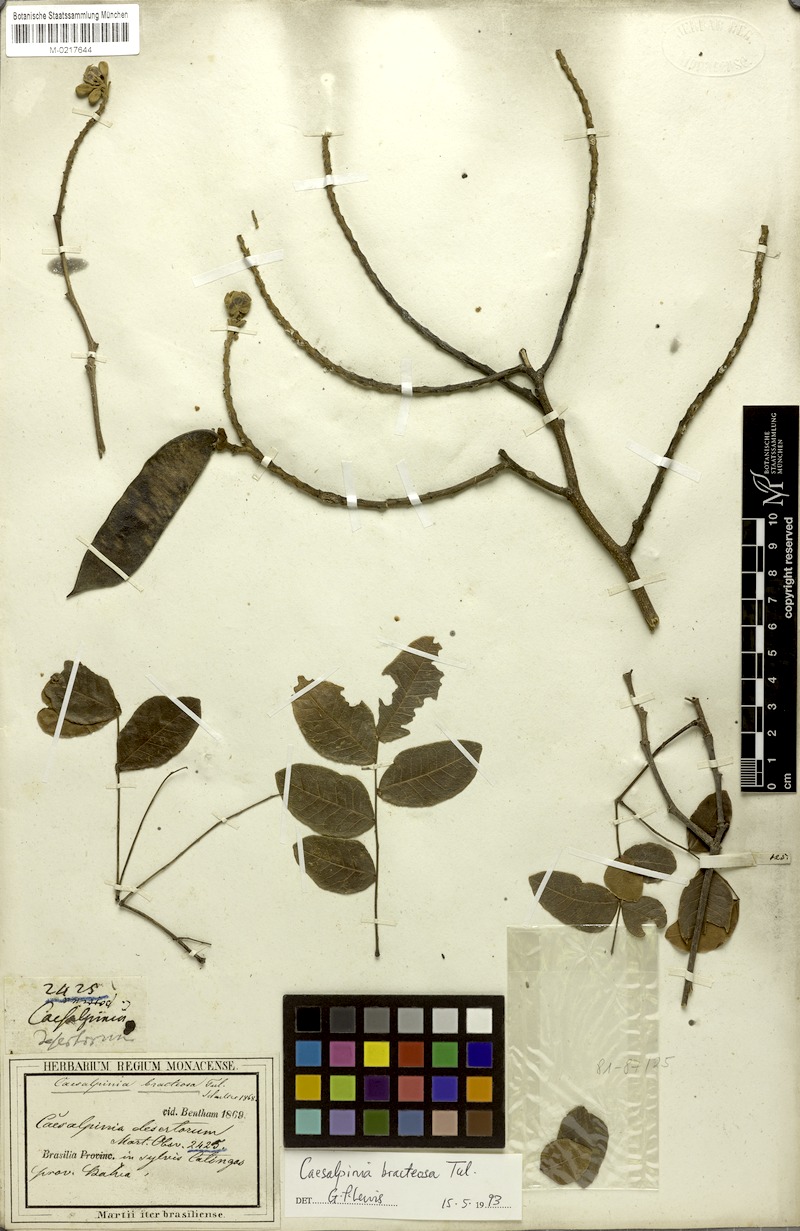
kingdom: Plantae
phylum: Tracheophyta
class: Magnoliopsida
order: Fabales
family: Fabaceae
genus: Cenostigma
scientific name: Cenostigma bracteosum
